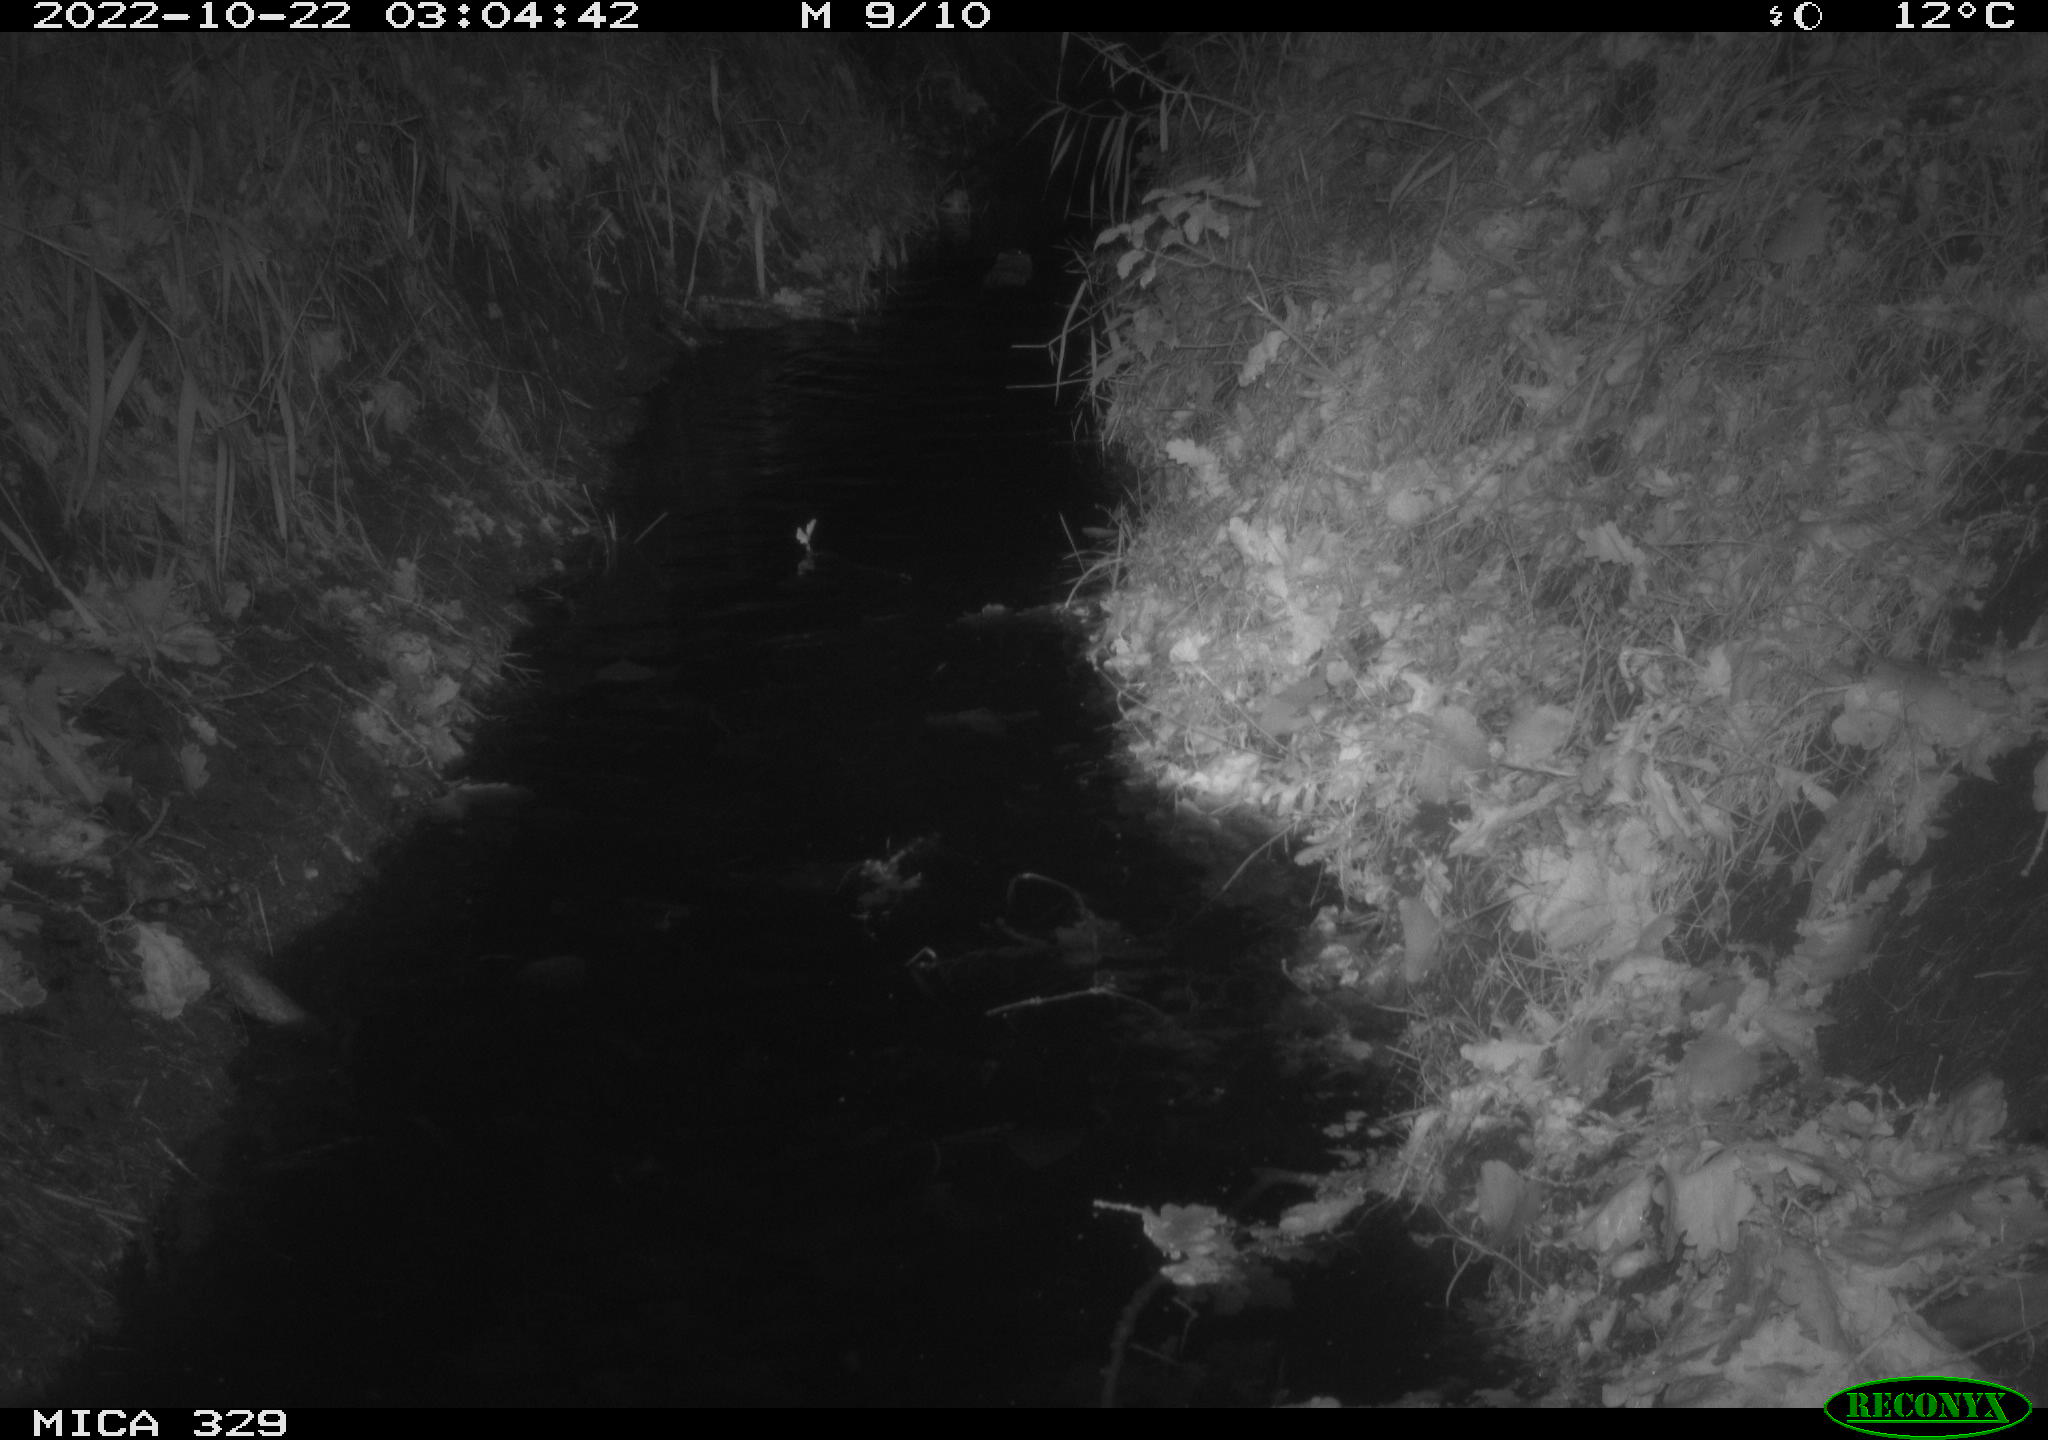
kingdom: Animalia
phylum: Chordata
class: Mammalia
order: Rodentia
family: Cricetidae
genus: Ondatra
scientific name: Ondatra zibethicus
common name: Muskrat
